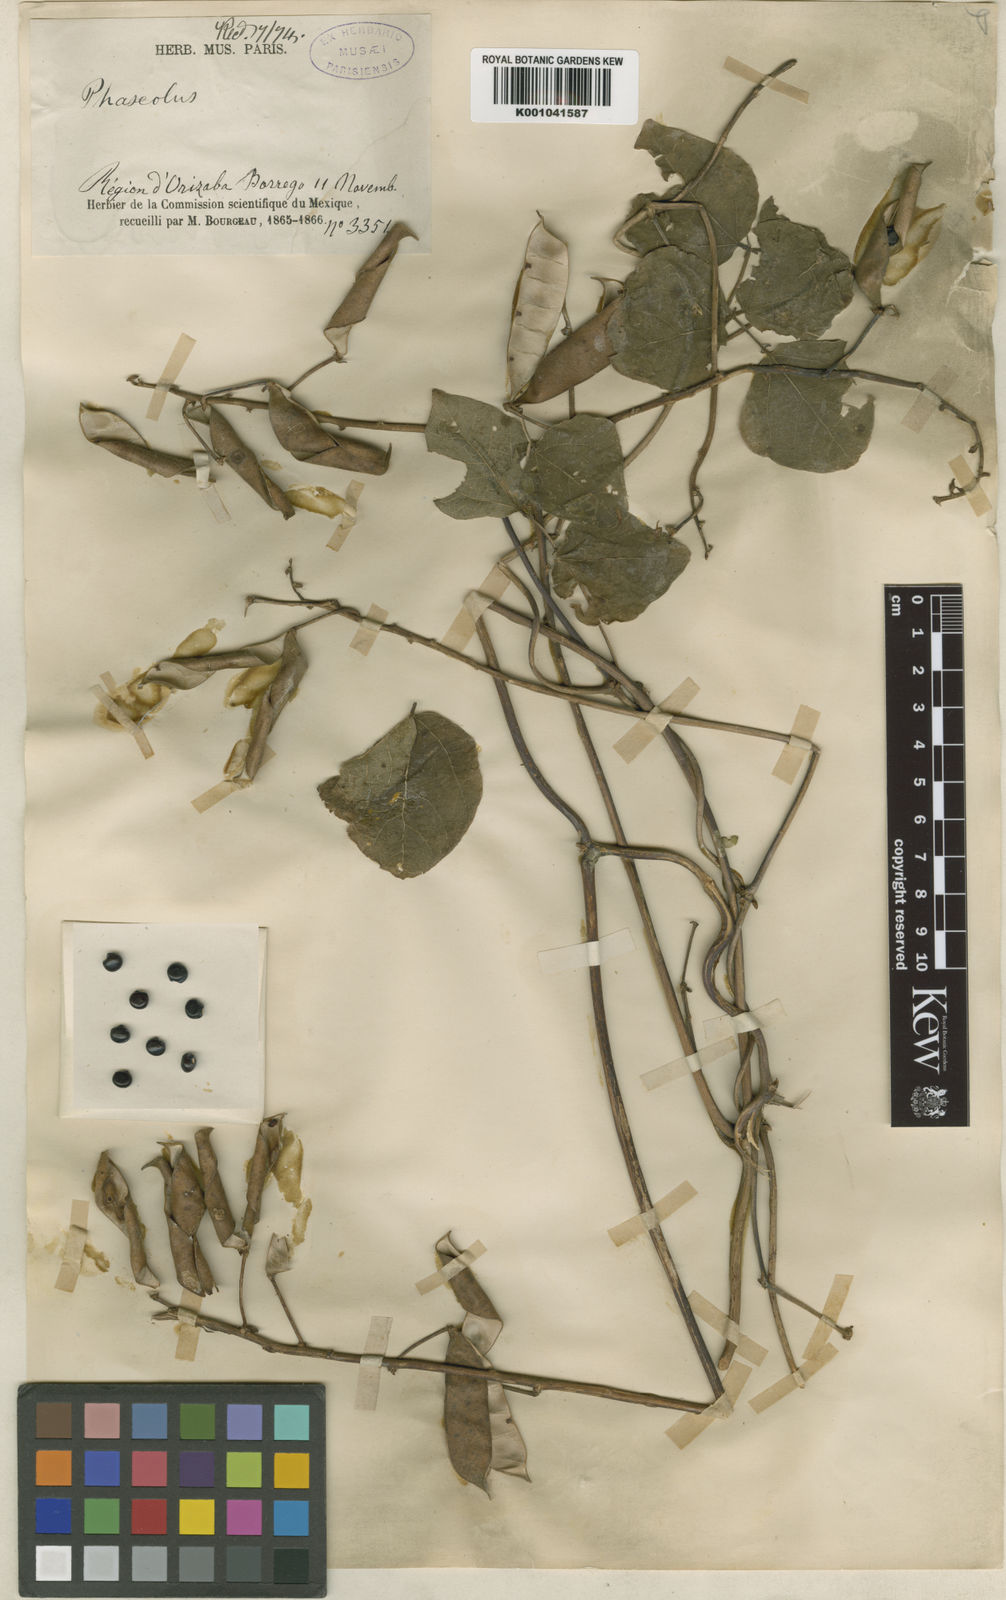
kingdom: Plantae
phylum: Tracheophyta
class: Magnoliopsida
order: Fabales
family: Fabaceae
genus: Phaseolus
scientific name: Phaseolus
